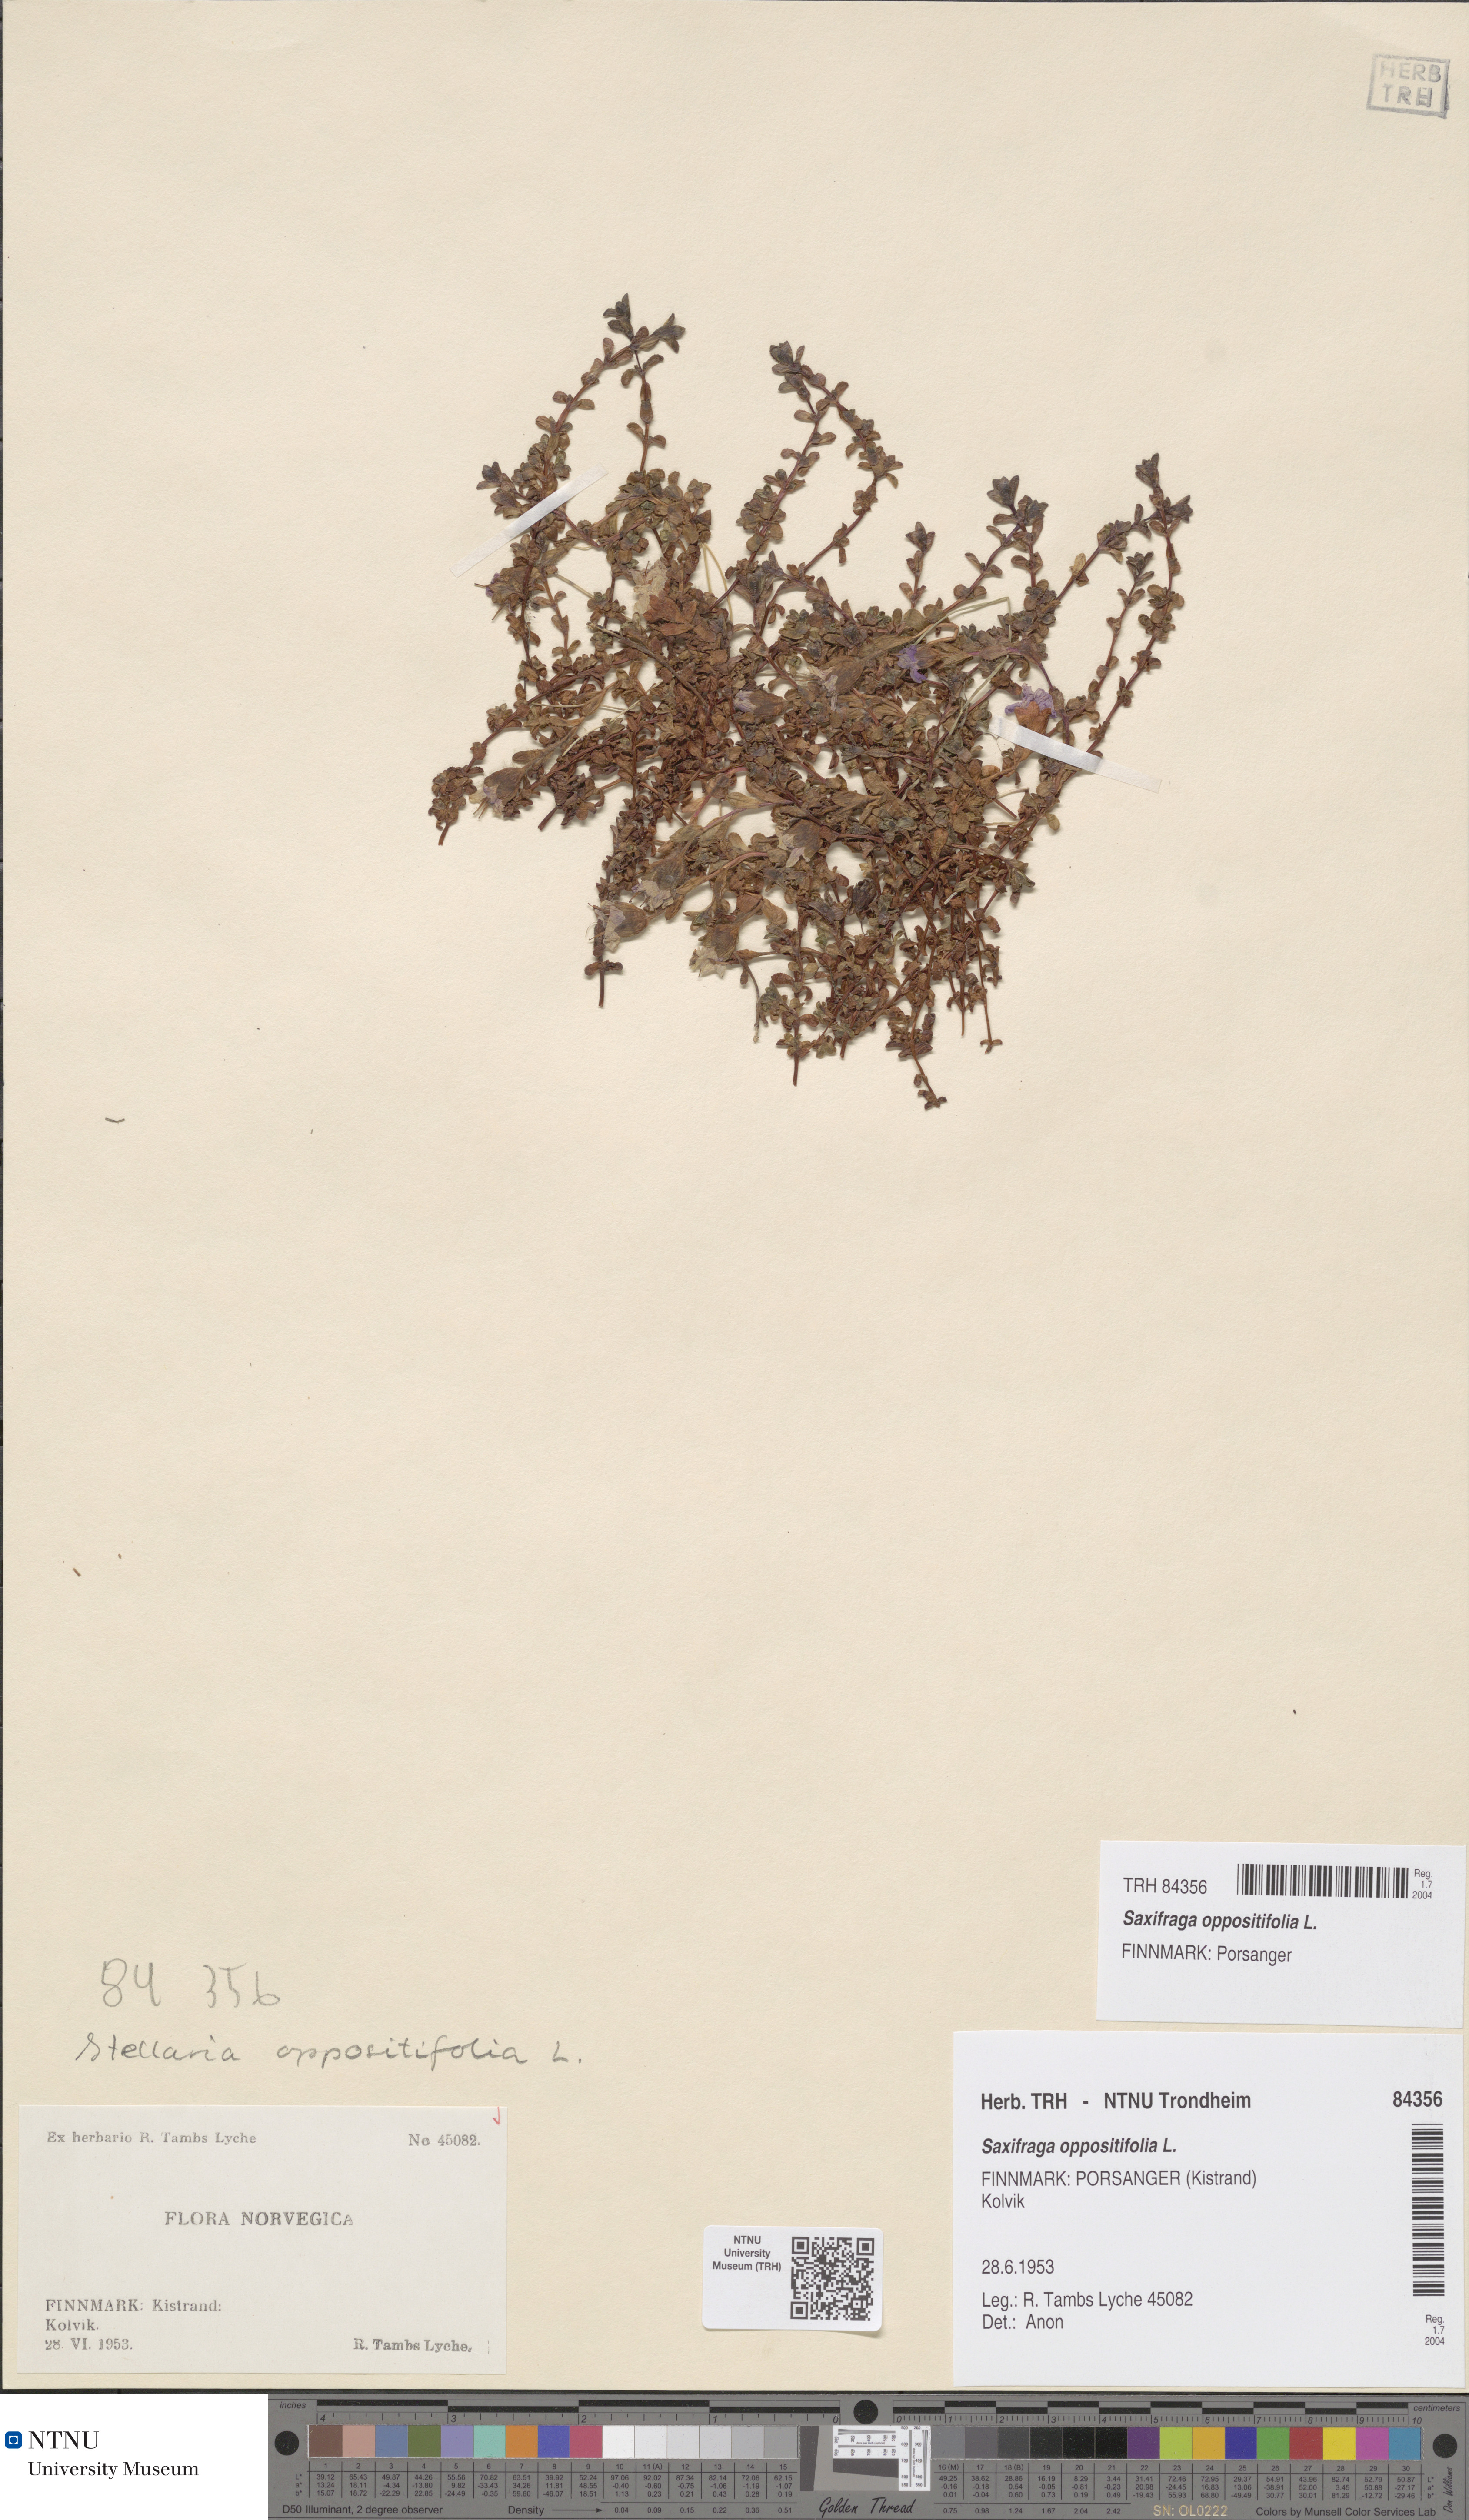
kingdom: Plantae
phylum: Tracheophyta
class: Magnoliopsida
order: Saxifragales
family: Saxifragaceae
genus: Saxifraga
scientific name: Saxifraga oppositifolia
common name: Purple saxifrage
